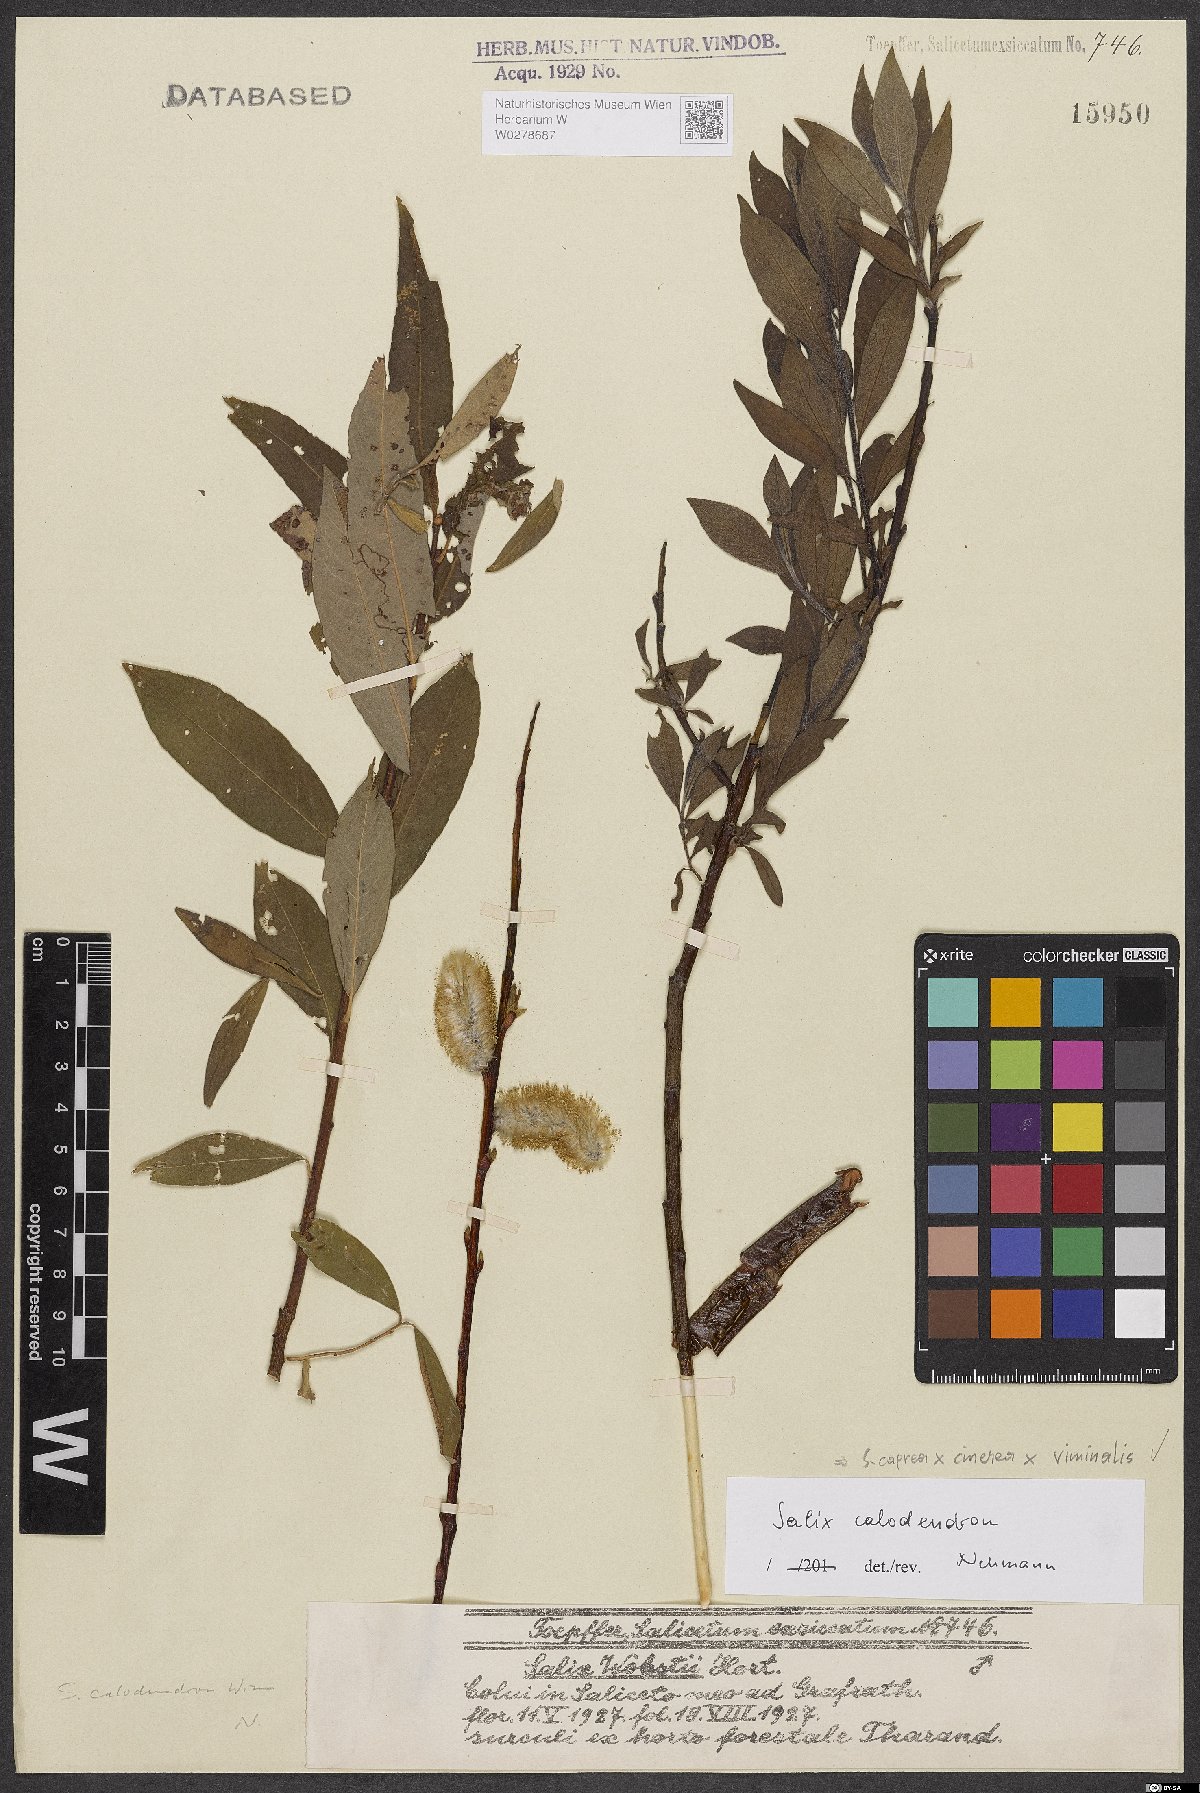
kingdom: Plantae
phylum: Tracheophyta
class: Magnoliopsida
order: Malpighiales
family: Salicaceae
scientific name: Salicaceae
